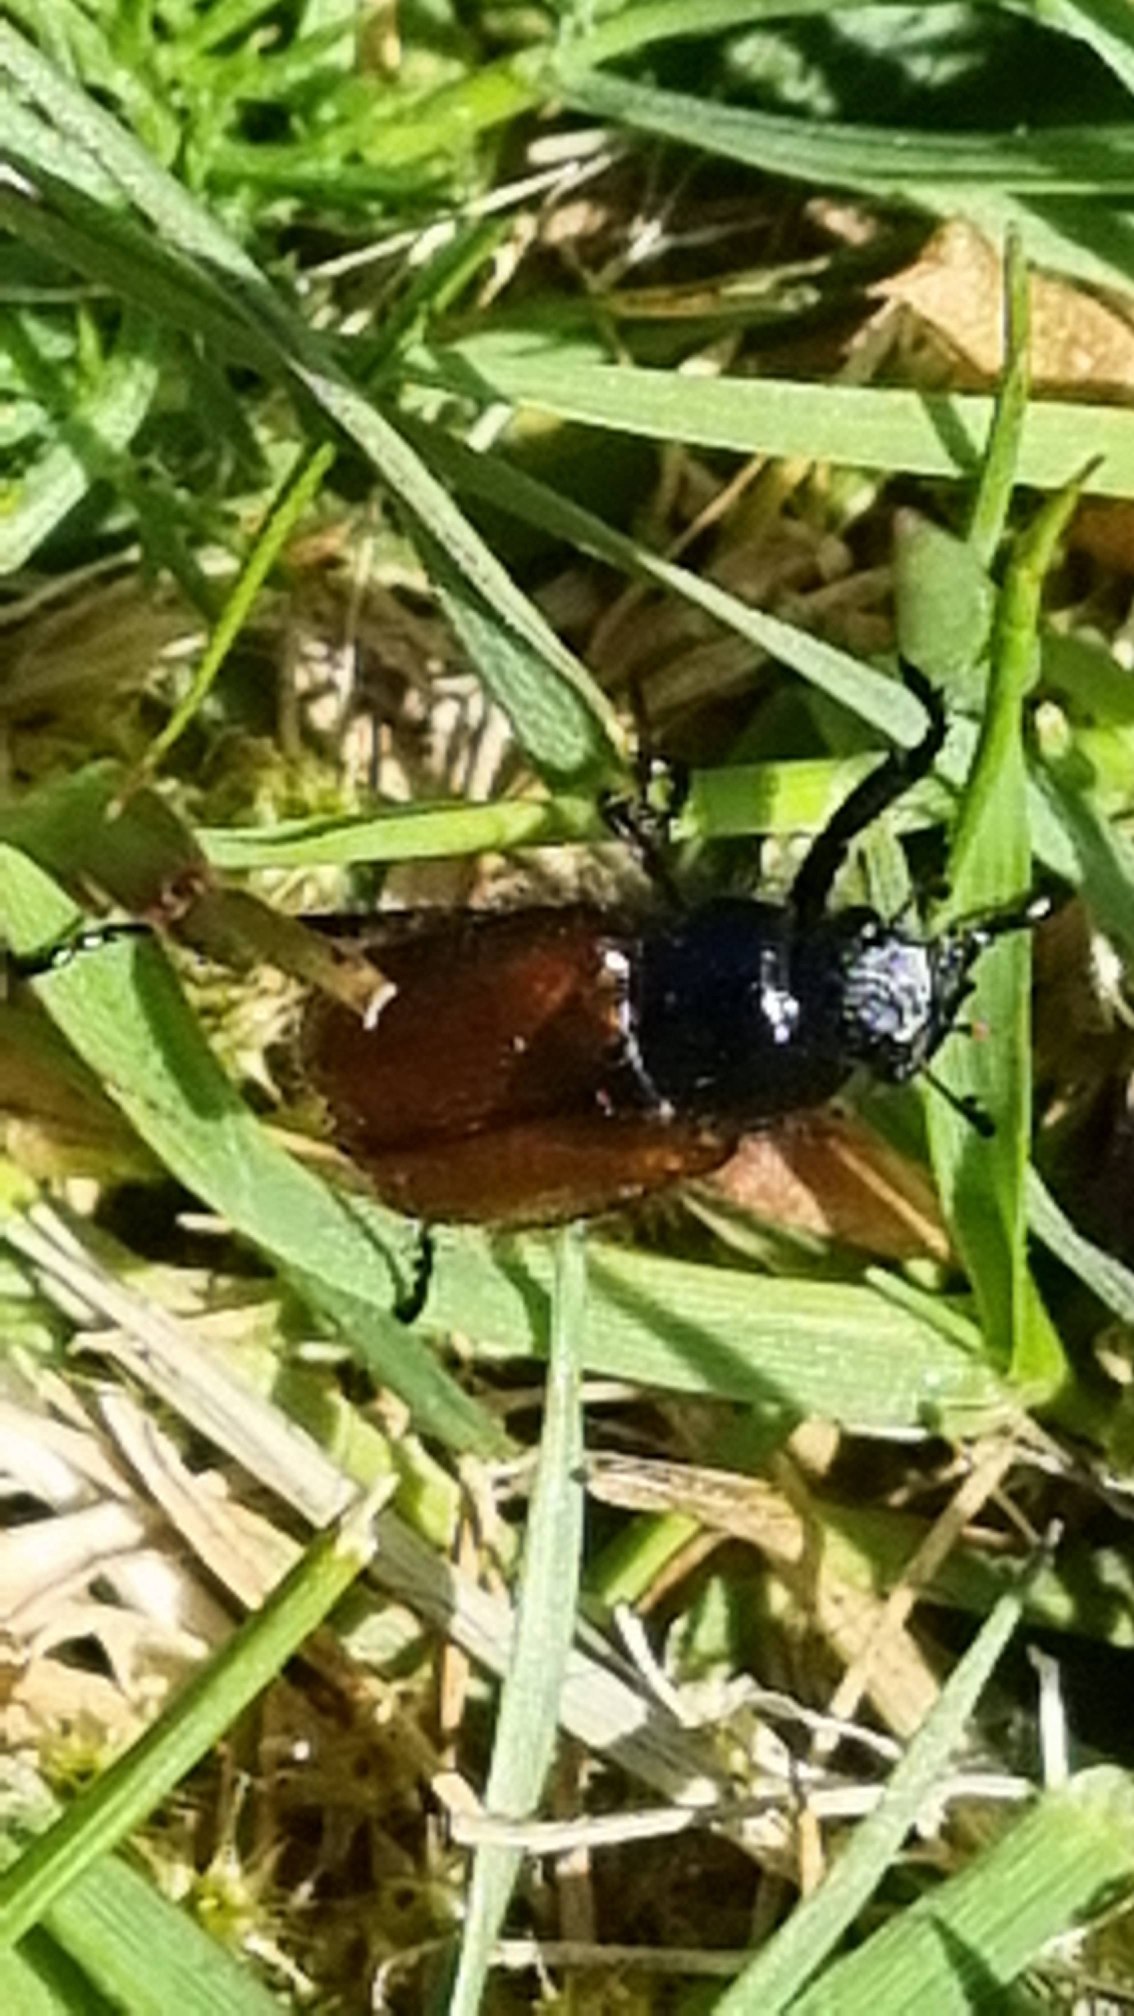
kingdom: Animalia
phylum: Arthropoda
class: Insecta
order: Coleoptera
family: Scarabaeidae
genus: Phyllopertha
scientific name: Phyllopertha horticola
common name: Gåsebille
